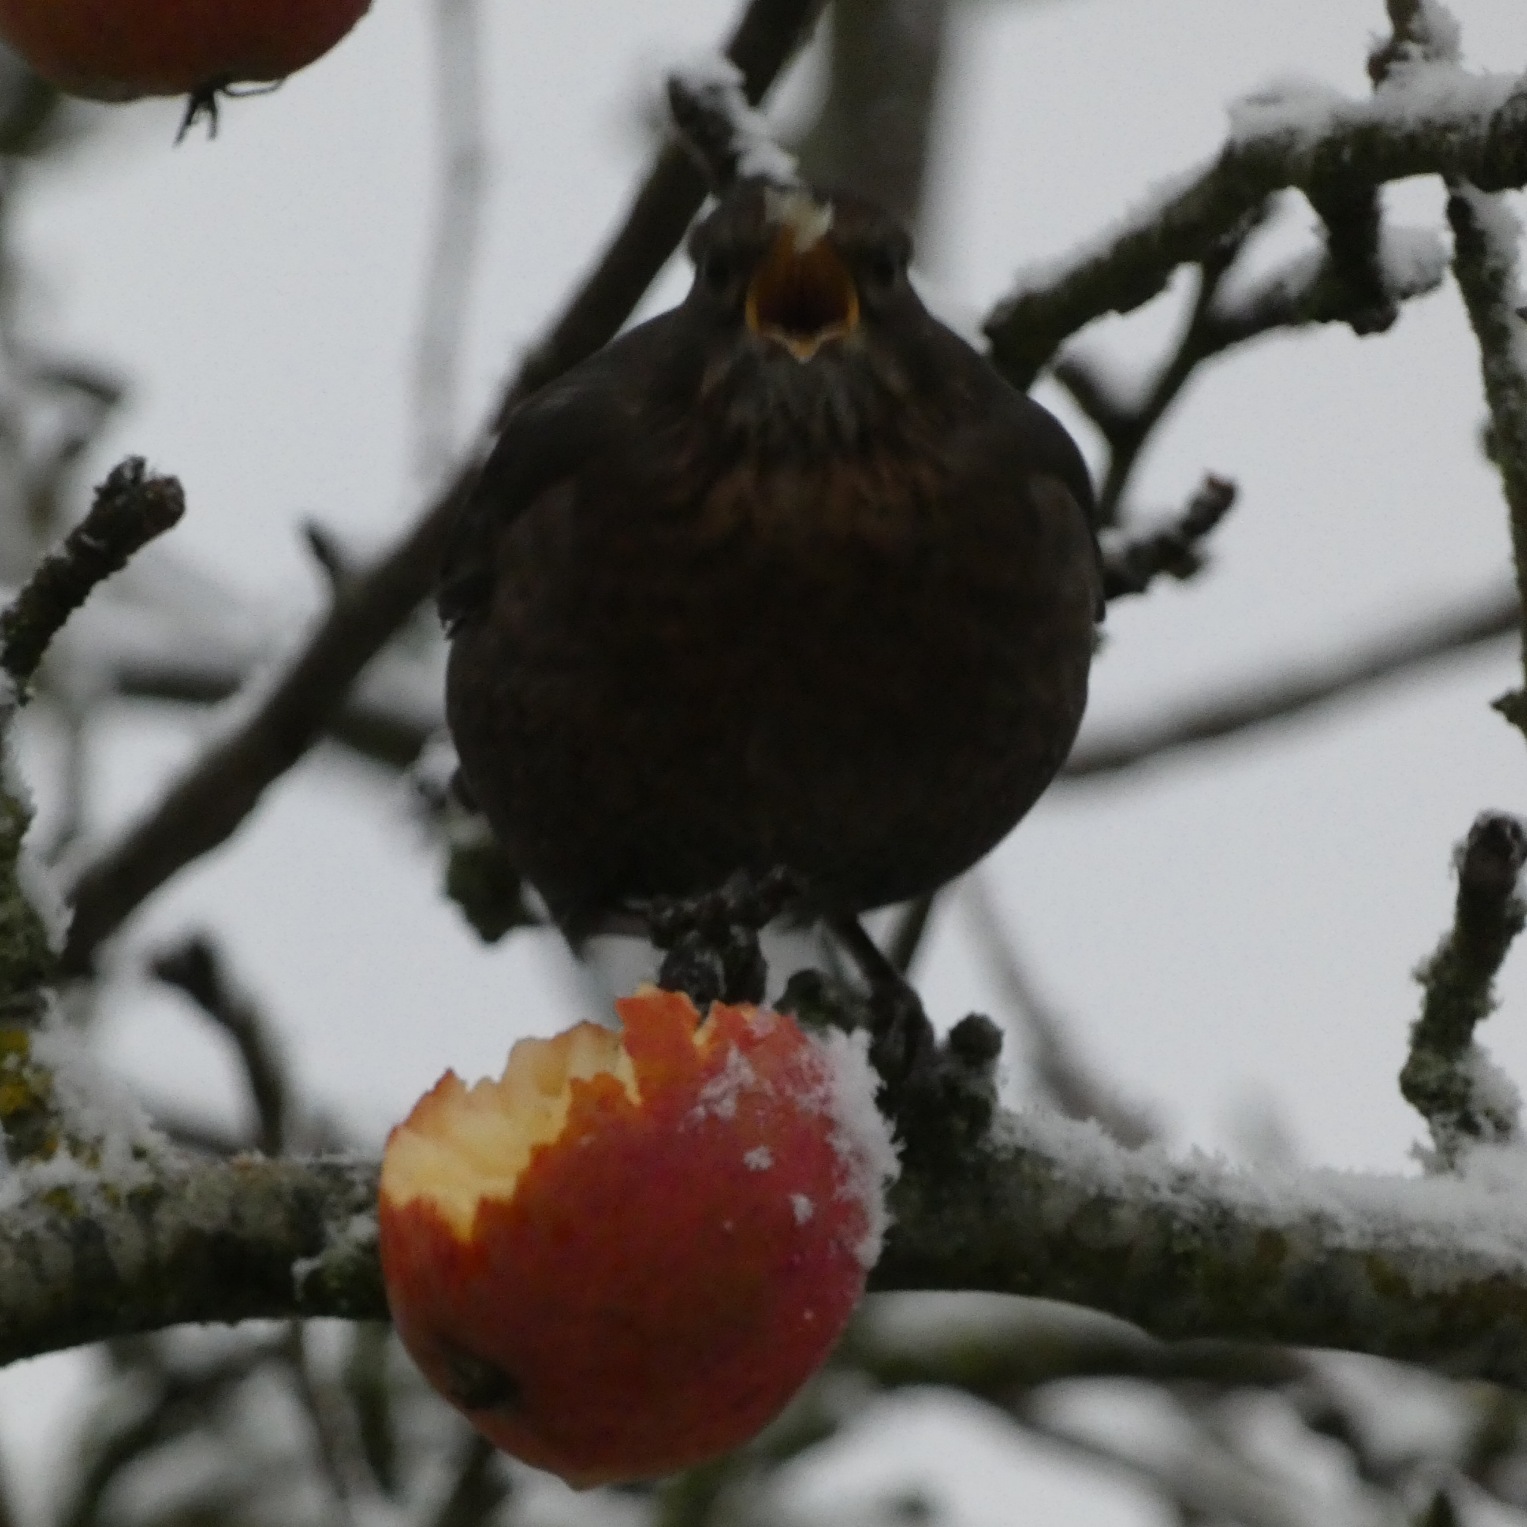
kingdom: Animalia
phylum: Chordata
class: Aves
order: Passeriformes
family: Turdidae
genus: Turdus
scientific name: Turdus merula
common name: Solsort
